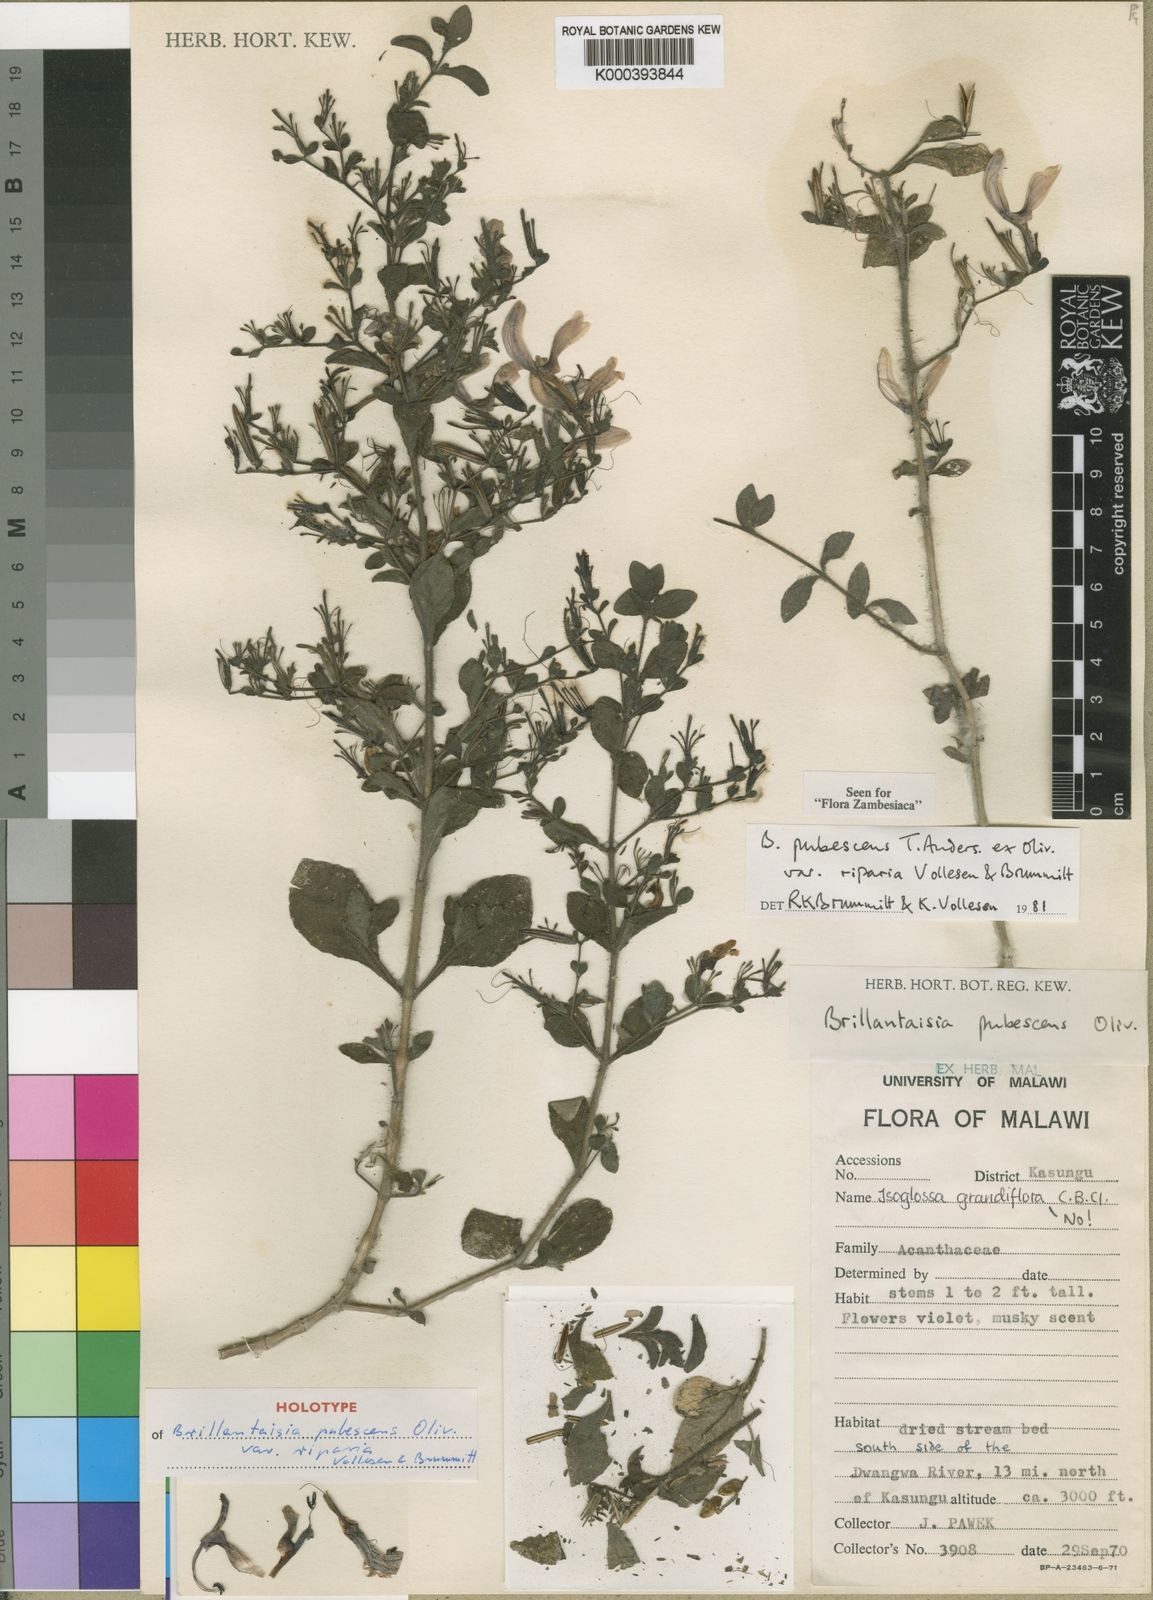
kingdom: Plantae
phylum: Tracheophyta
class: Magnoliopsida
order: Lamiales
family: Acanthaceae
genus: Brillantaisia
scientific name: Brillantaisia riparia
